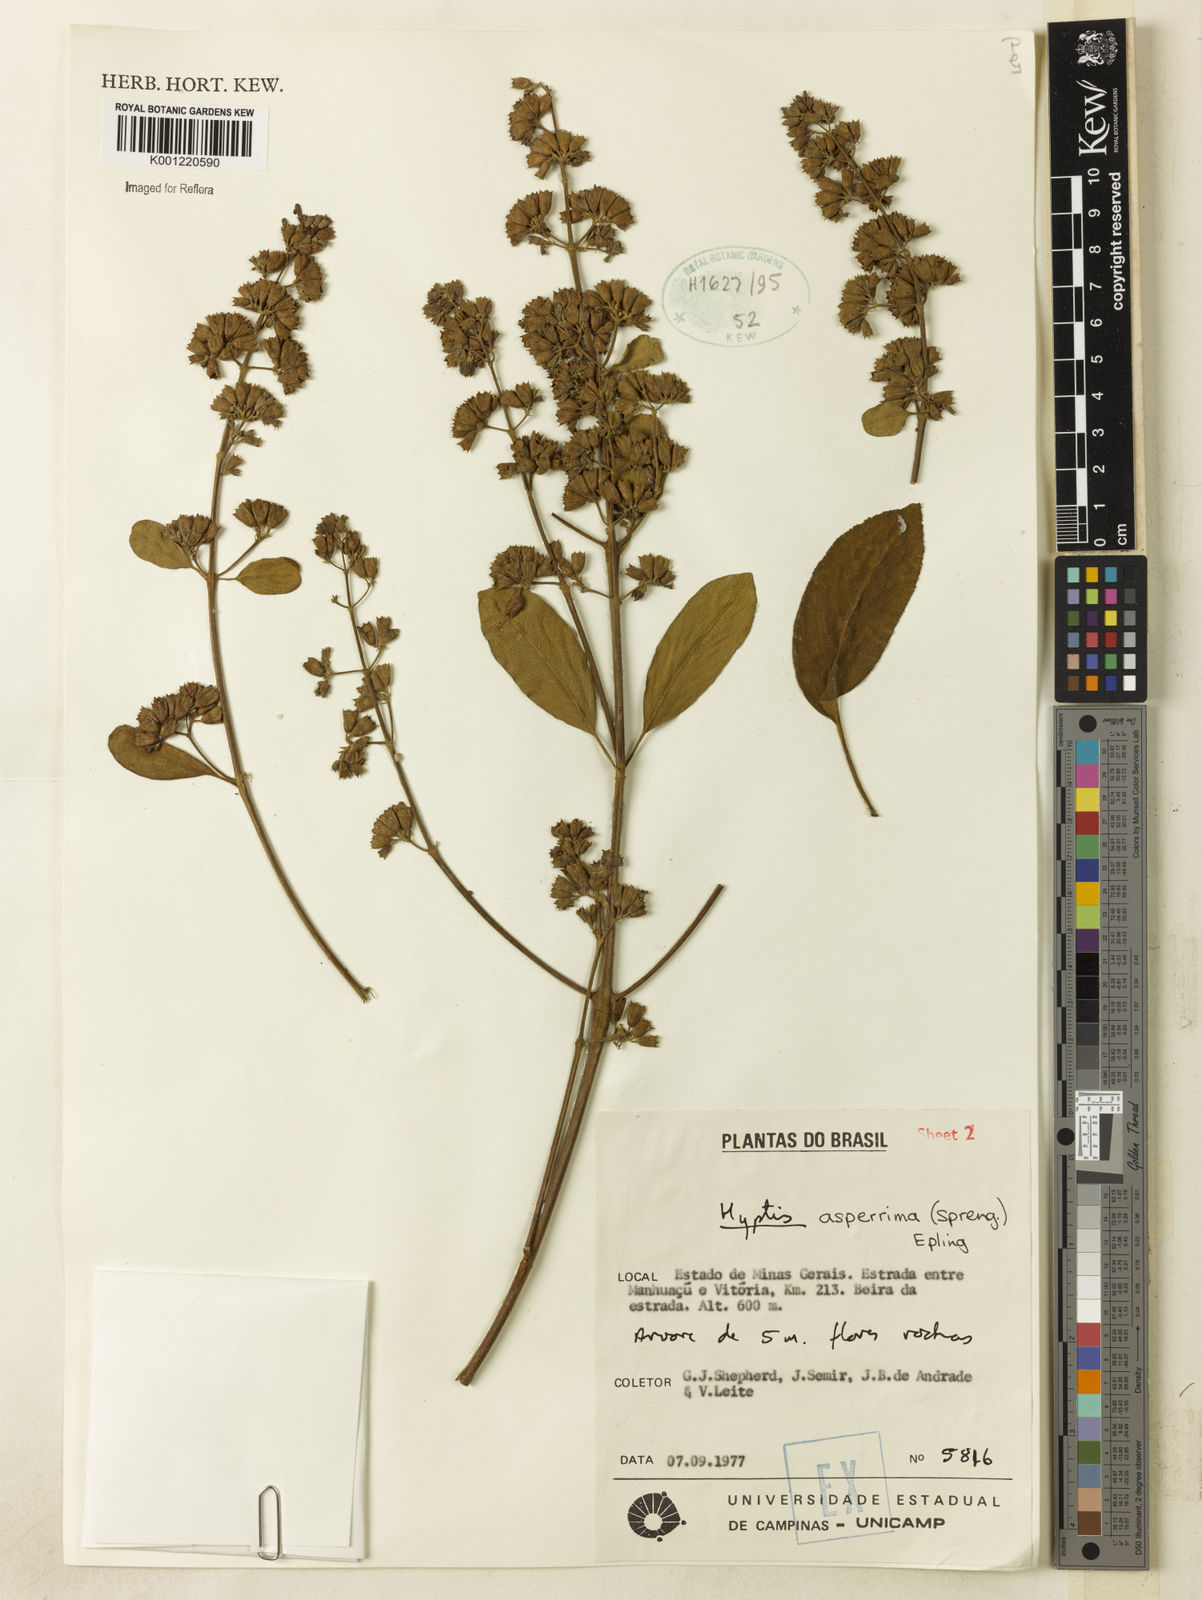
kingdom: Plantae
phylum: Tracheophyta
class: Magnoliopsida
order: Lamiales
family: Lamiaceae
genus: Hyptidendron
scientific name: Hyptidendron asperrimum
